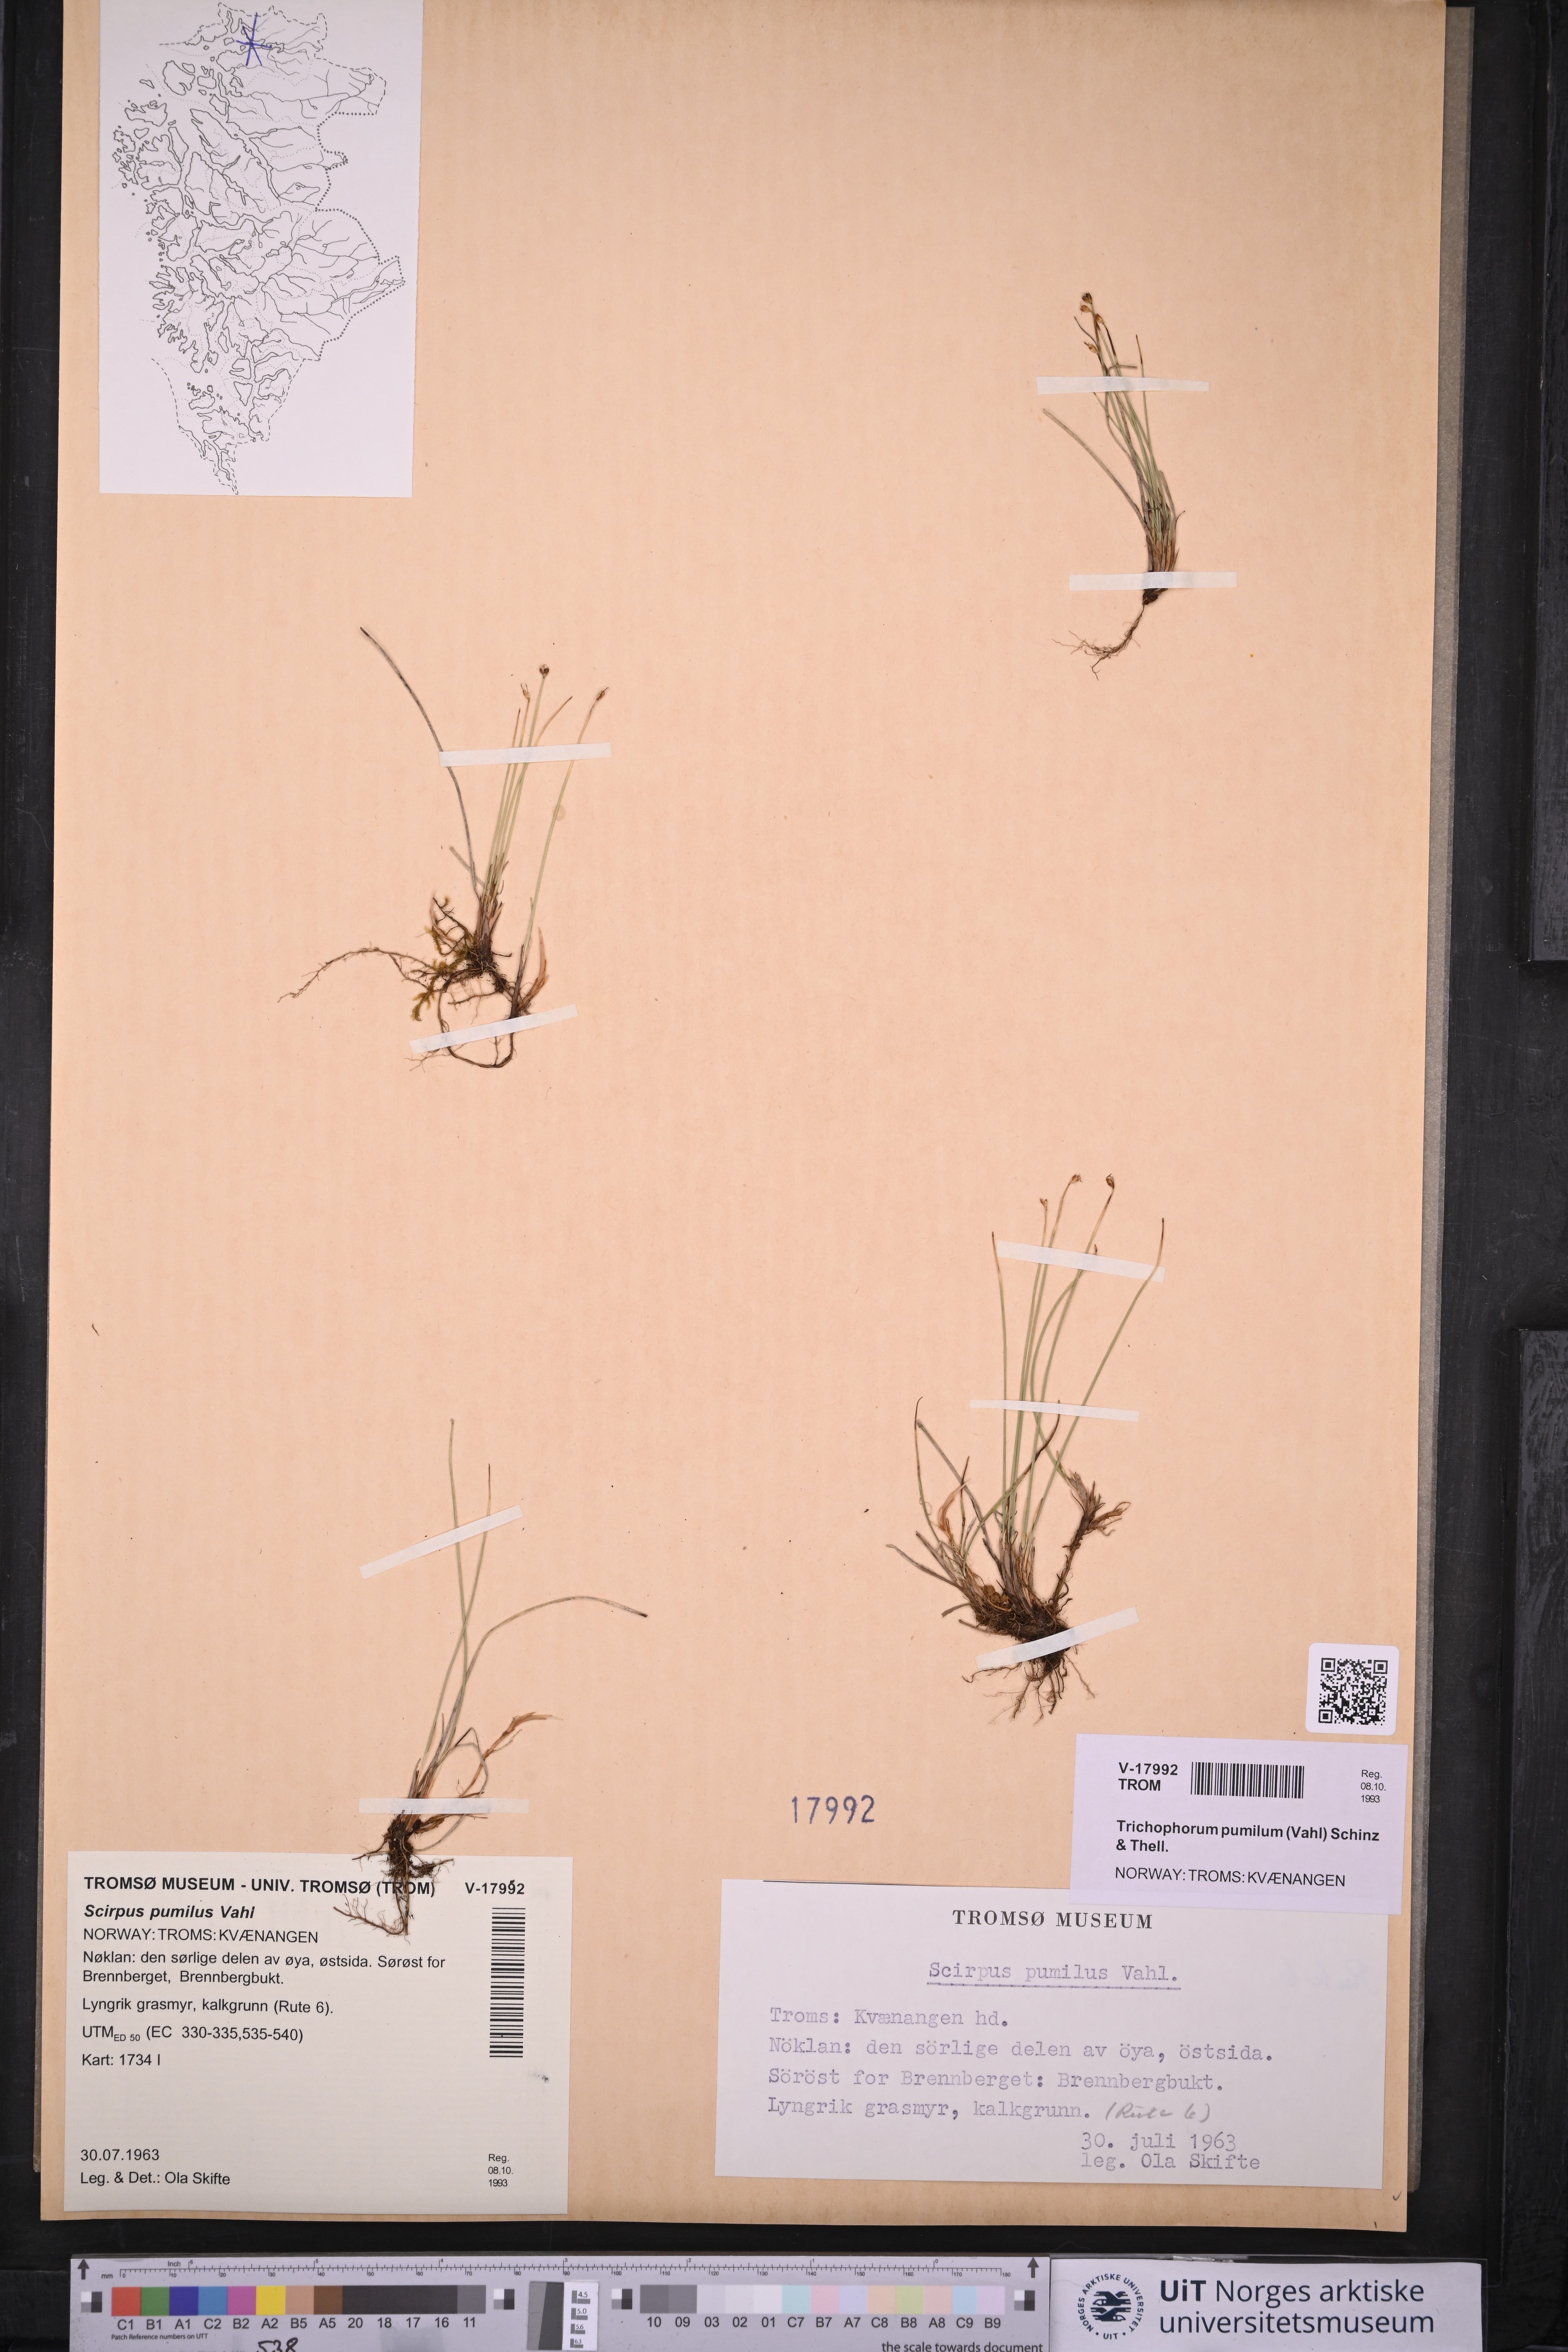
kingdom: Plantae
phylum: Tracheophyta
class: Liliopsida
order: Poales
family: Cyperaceae
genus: Trichophorum
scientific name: Trichophorum pumilum
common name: Rolland's bulrush
